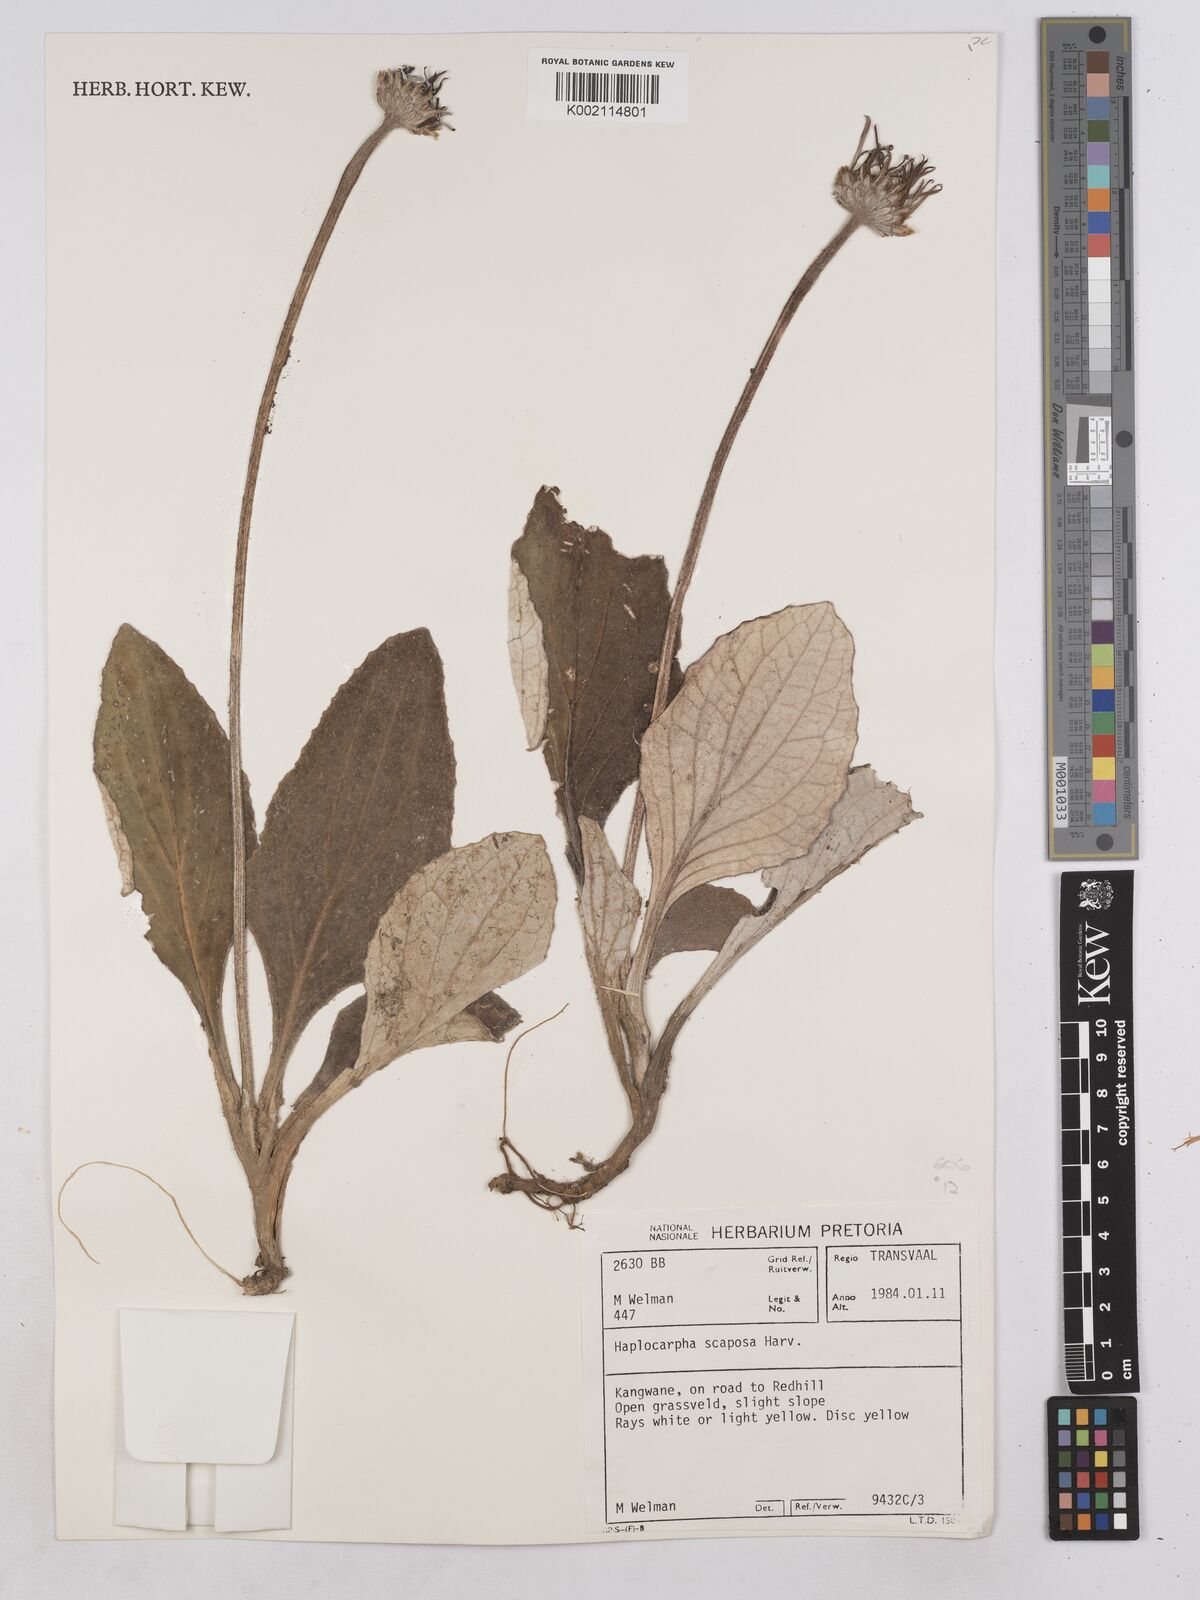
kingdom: Plantae
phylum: Tracheophyta
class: Magnoliopsida
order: Asterales
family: Asteraceae
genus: Haplocarpha
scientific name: Haplocarpha scaposa
